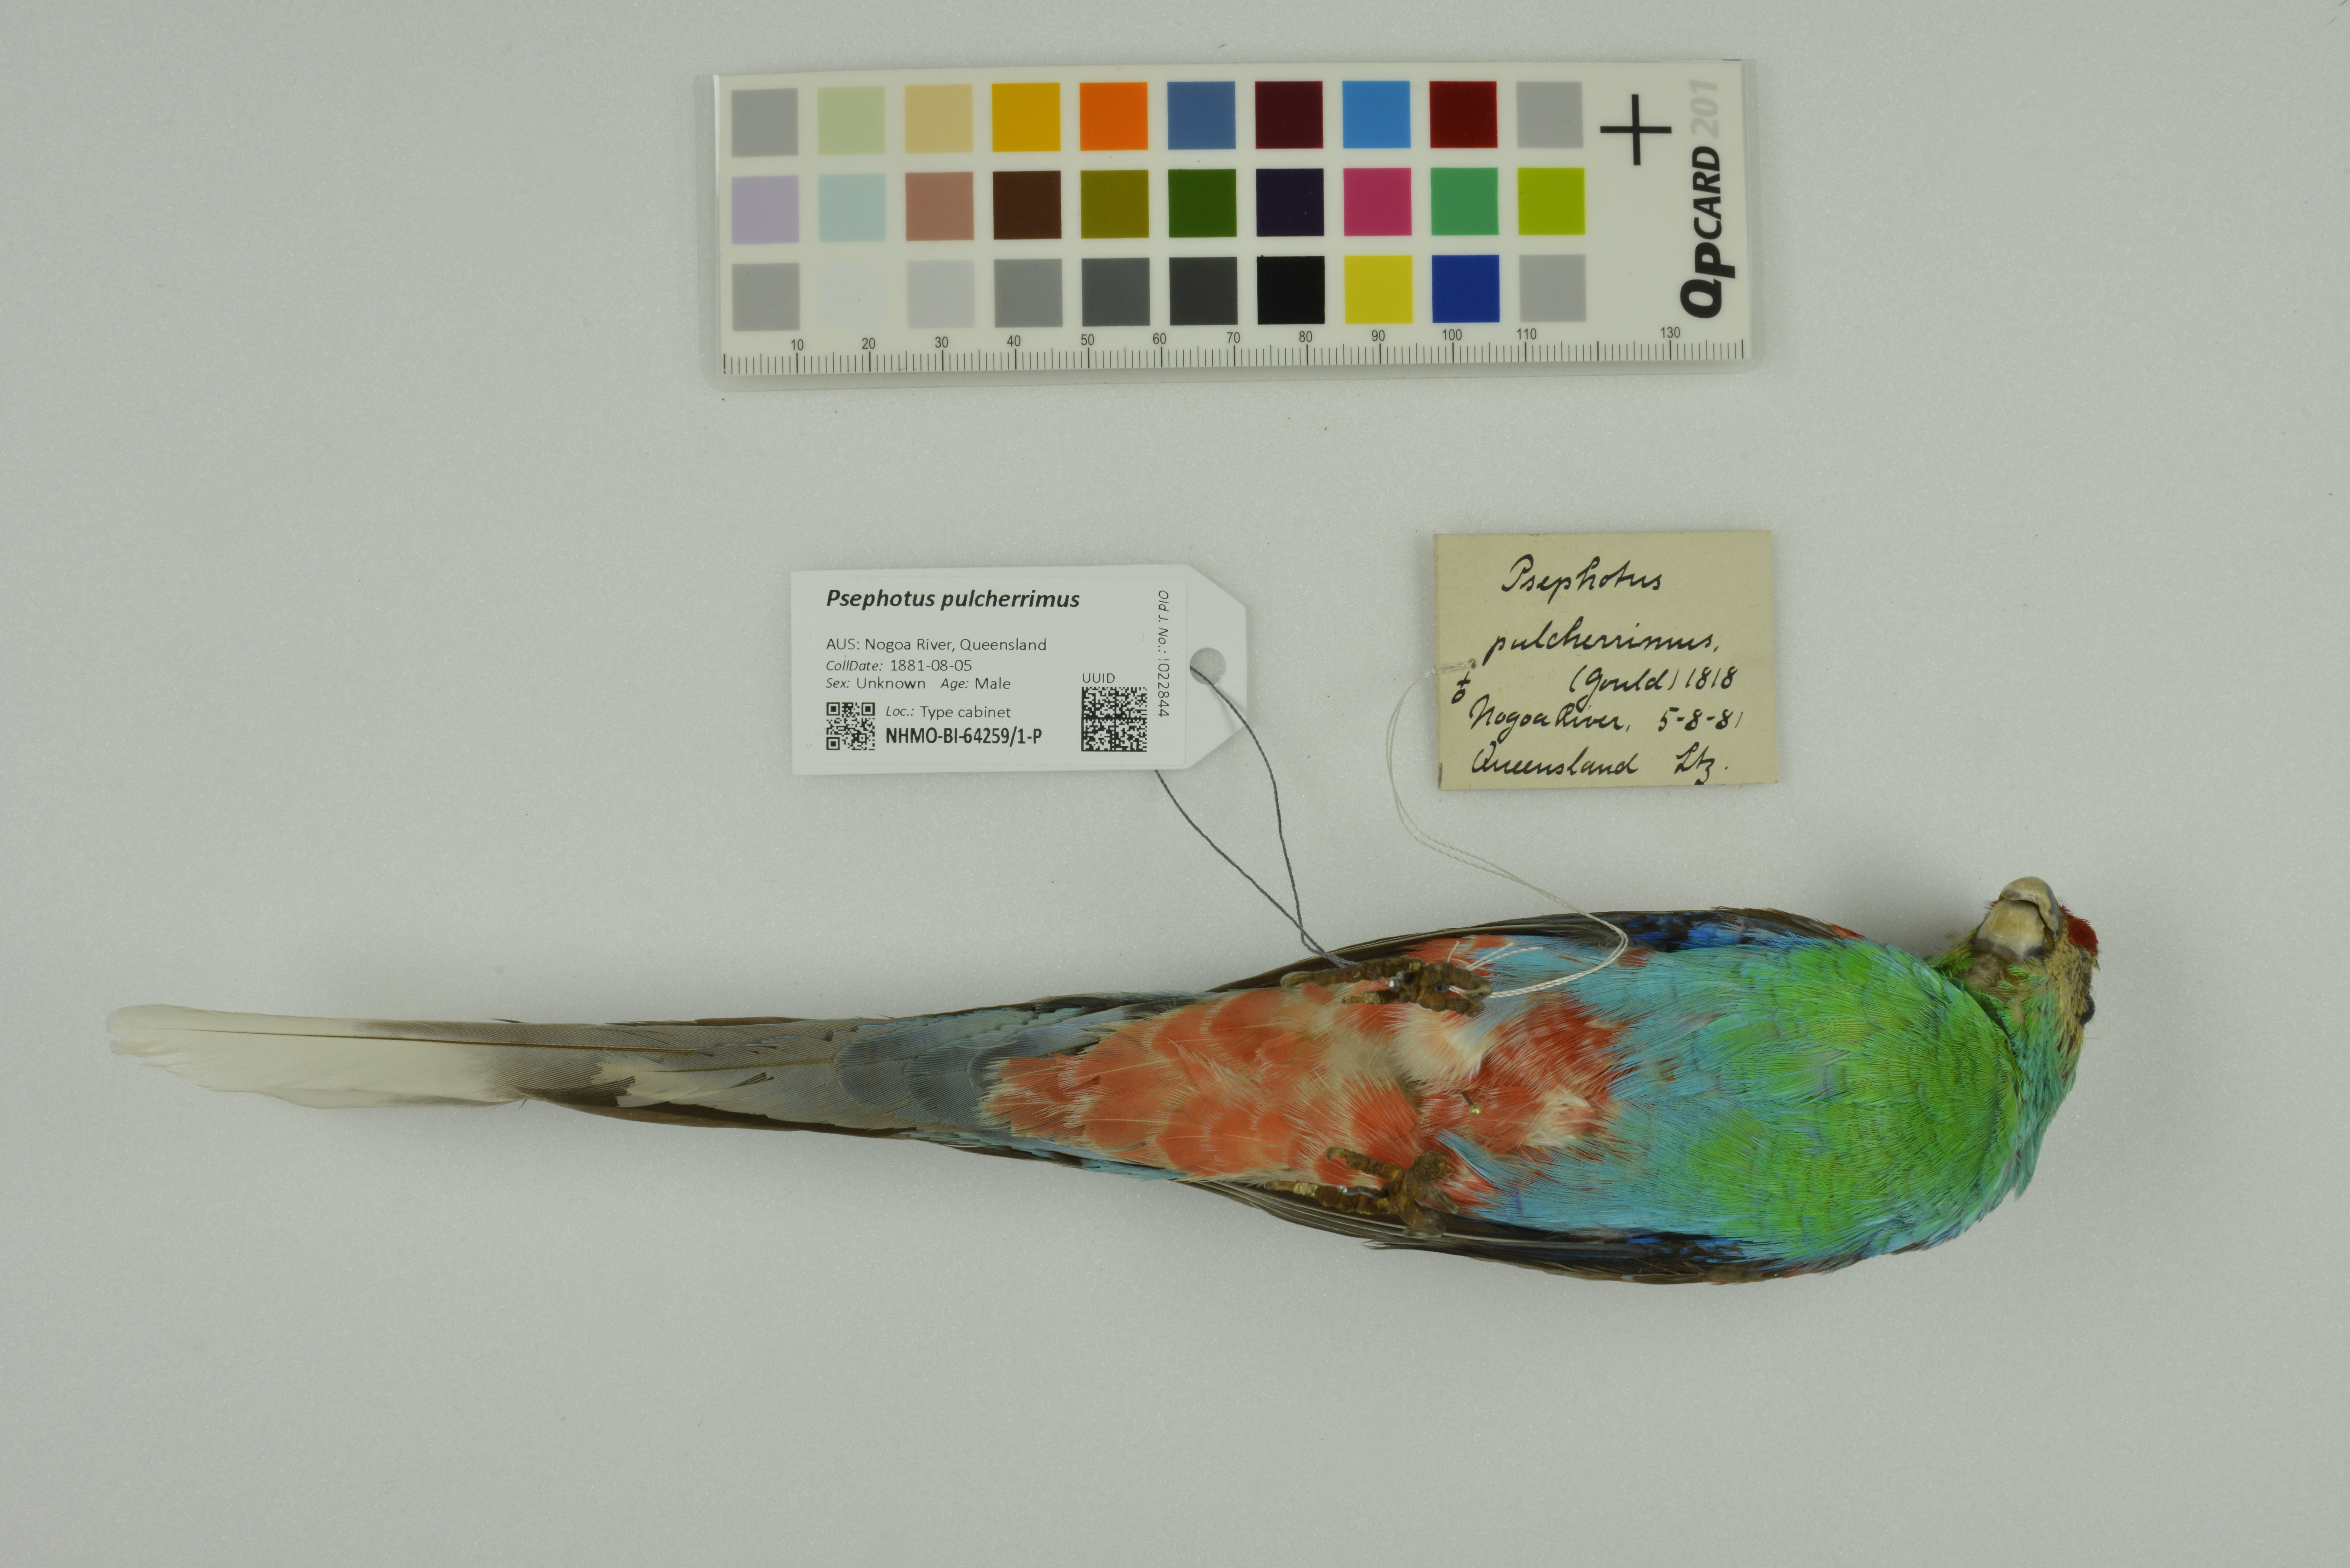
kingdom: Animalia
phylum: Chordata
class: Aves
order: Psittaciformes
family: Psittaculidae
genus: Psephotellus
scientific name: Psephotellus pulcherrimus
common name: Paradise parrot
